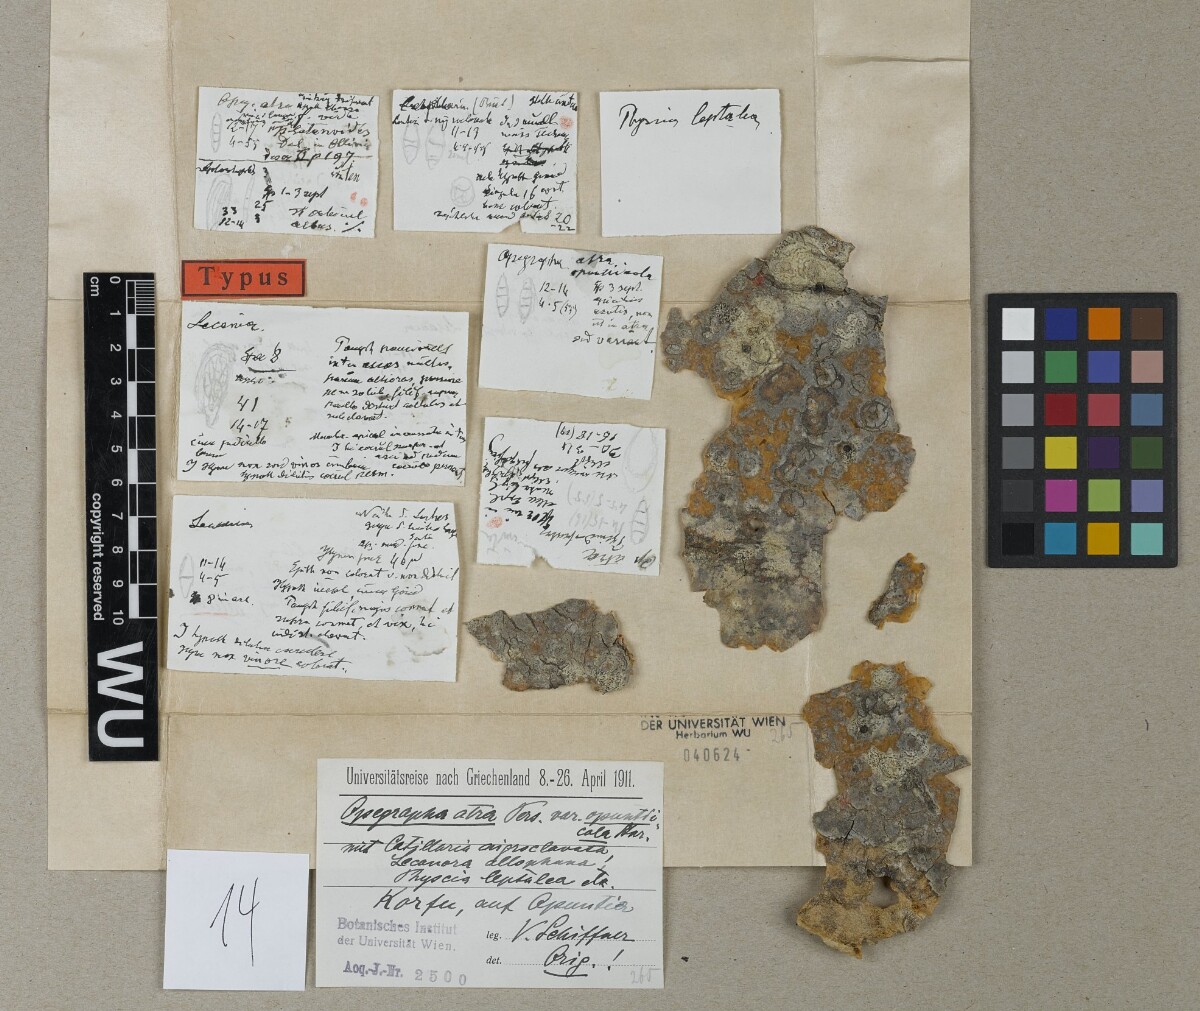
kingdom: Fungi
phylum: Ascomycota
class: Arthoniomycetes
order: Arthoniales
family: Opegraphaceae
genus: Opegrapha
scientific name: Opegrapha atra
